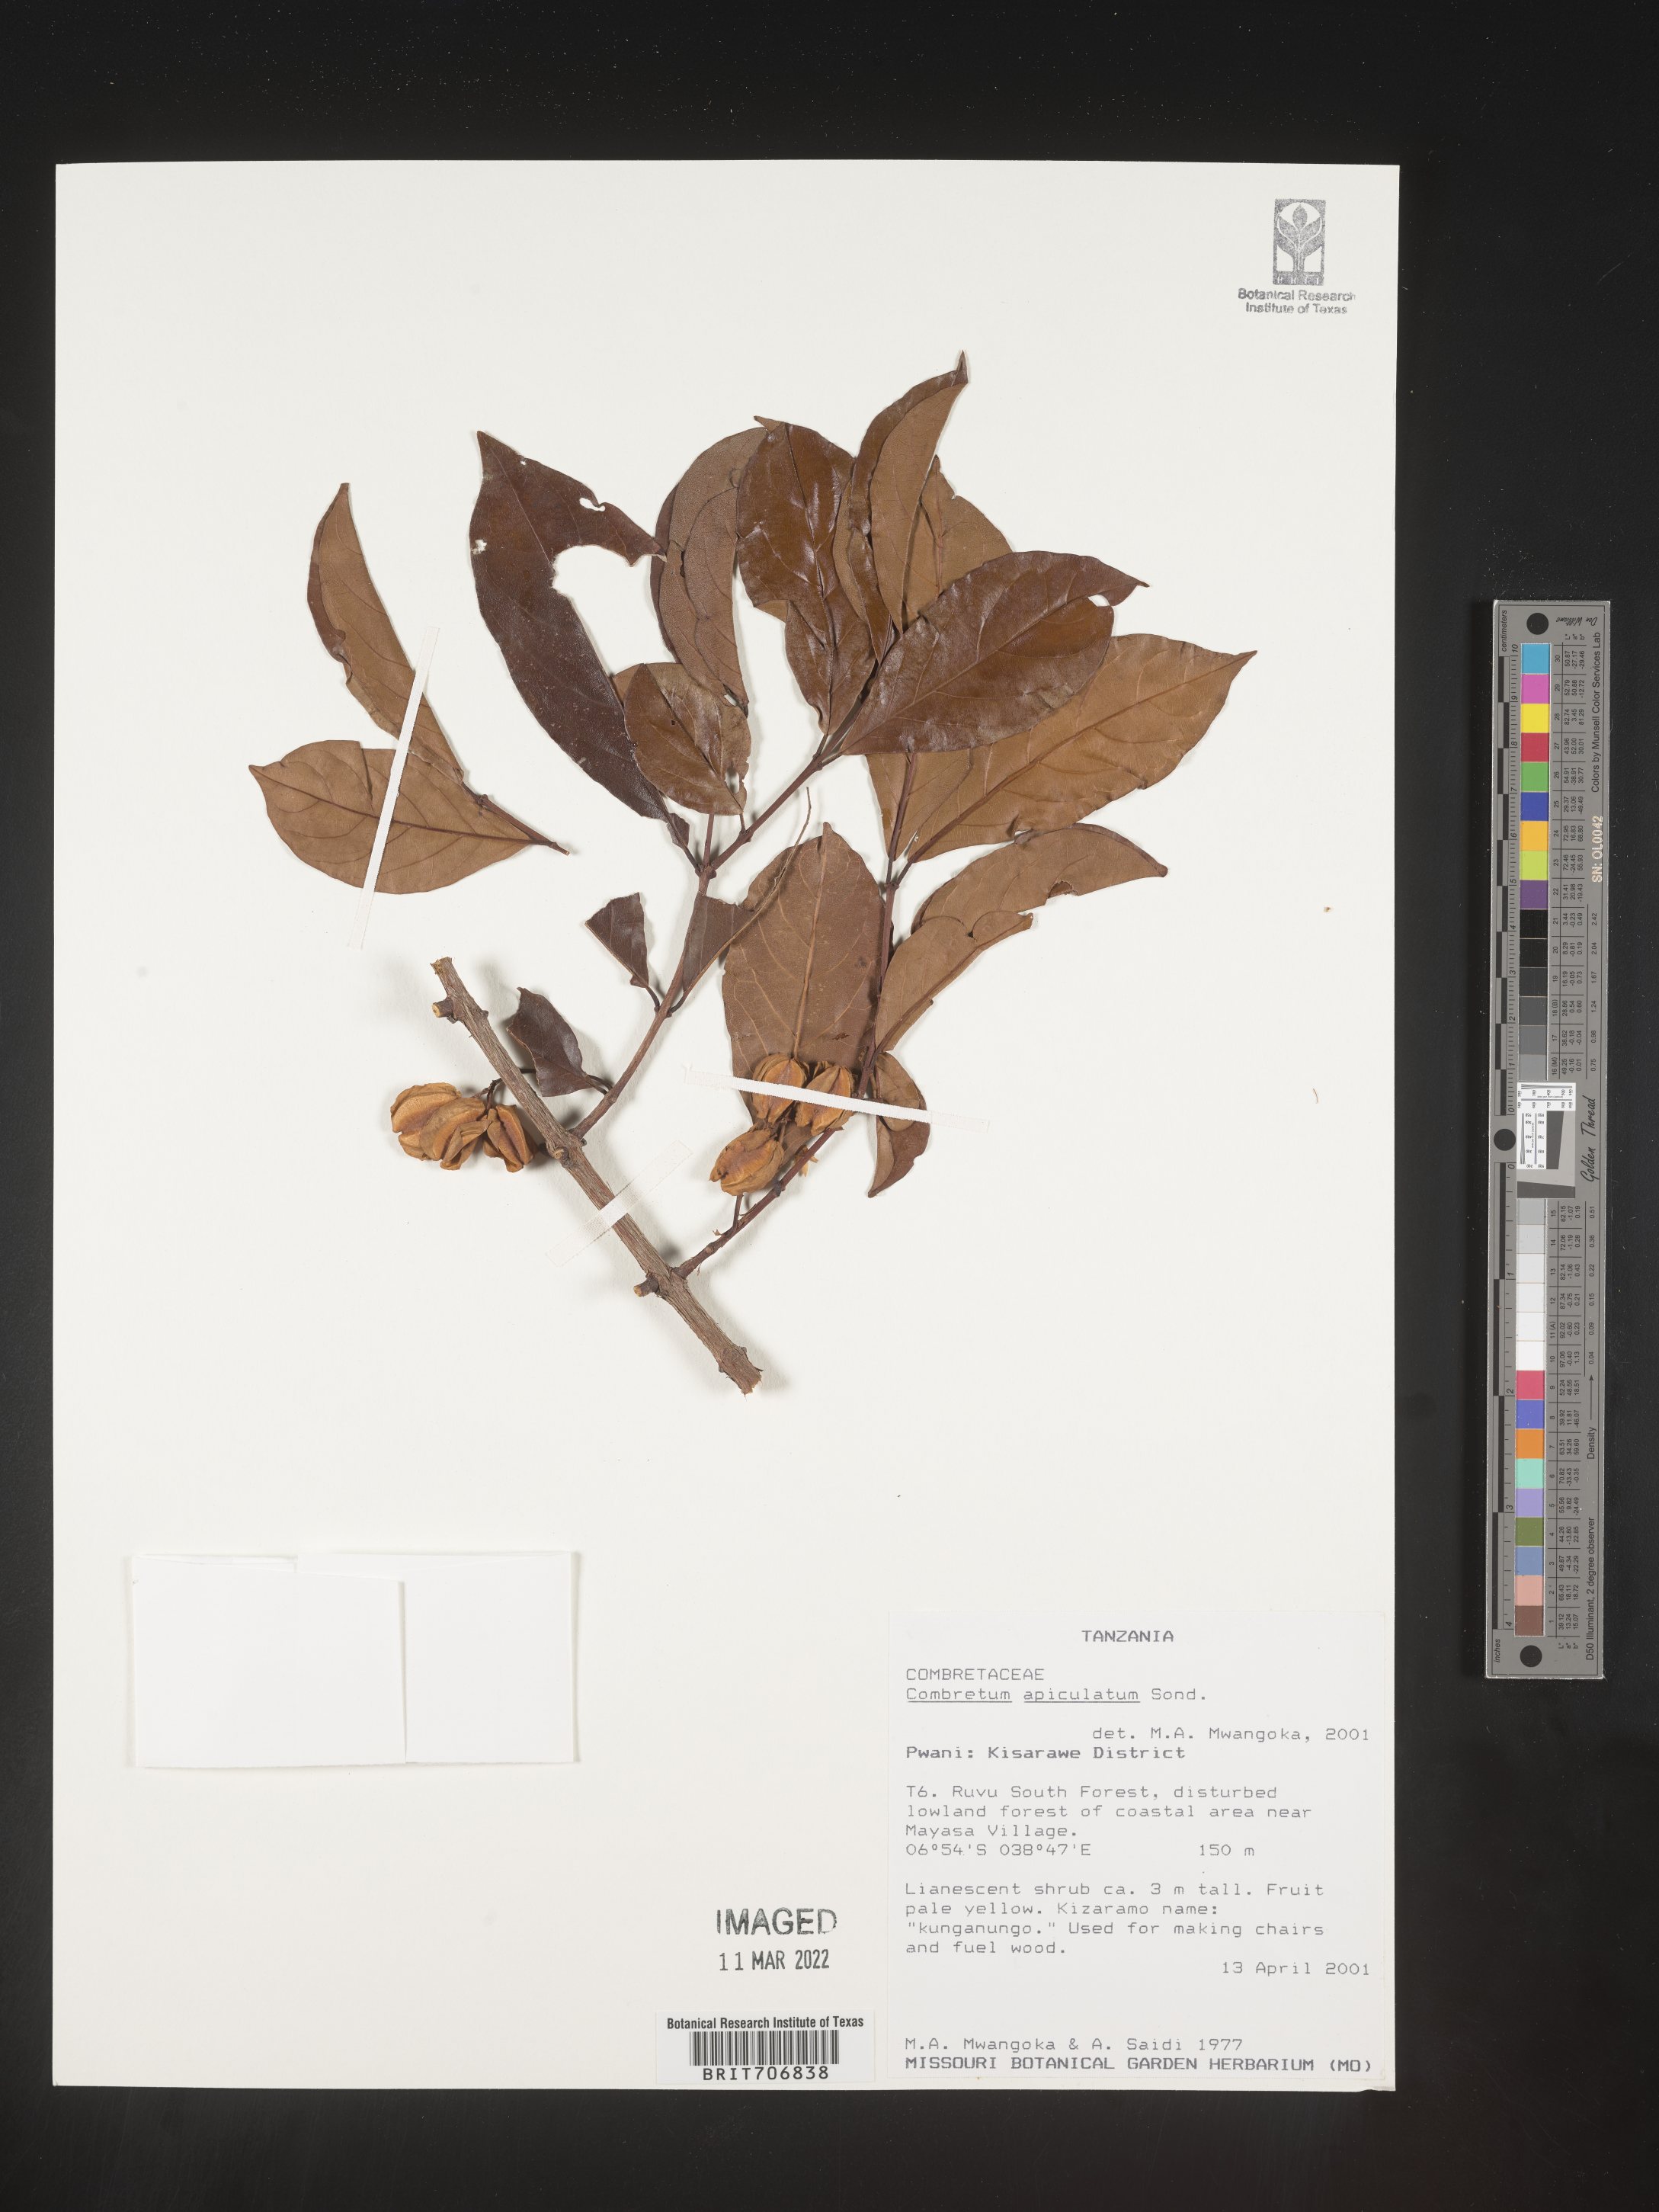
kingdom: Plantae
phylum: Tracheophyta
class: Magnoliopsida
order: Myrtales
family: Combretaceae
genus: Combretum
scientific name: Combretum
